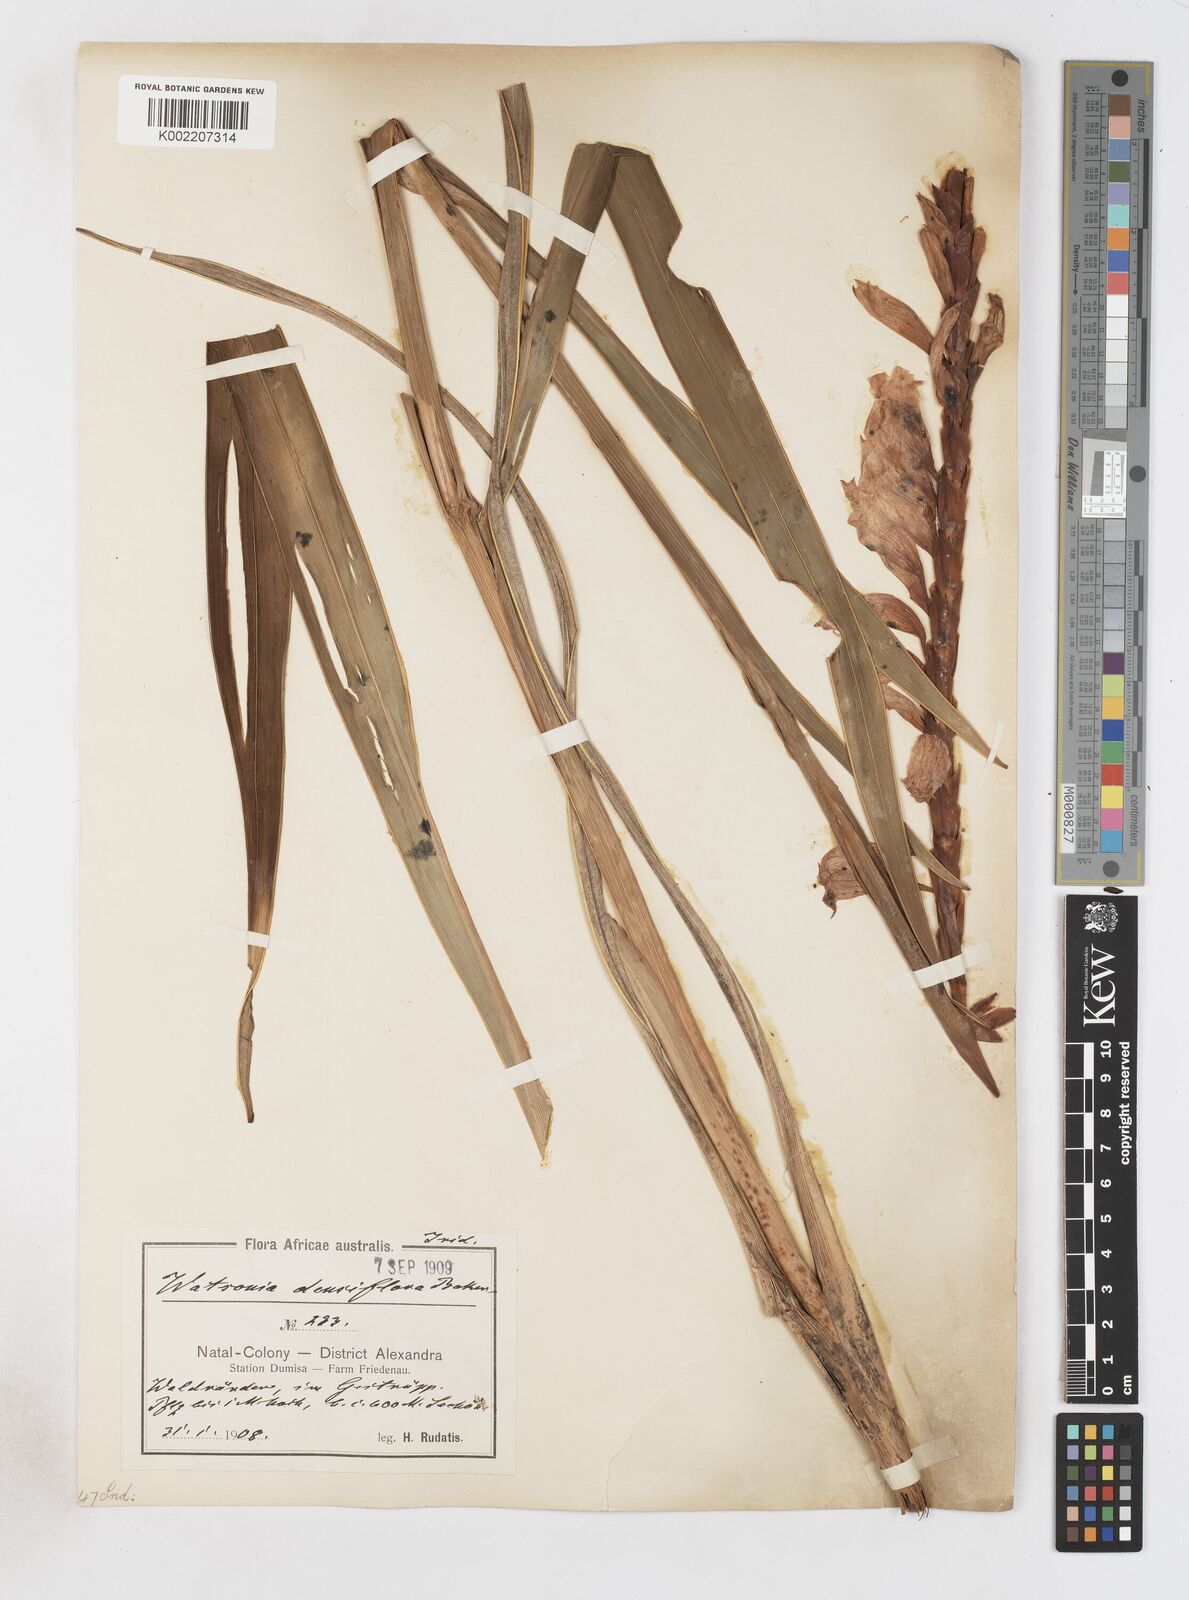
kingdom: Plantae
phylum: Tracheophyta
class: Liliopsida
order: Asparagales
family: Iridaceae
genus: Watsonia
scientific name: Watsonia densiflora
